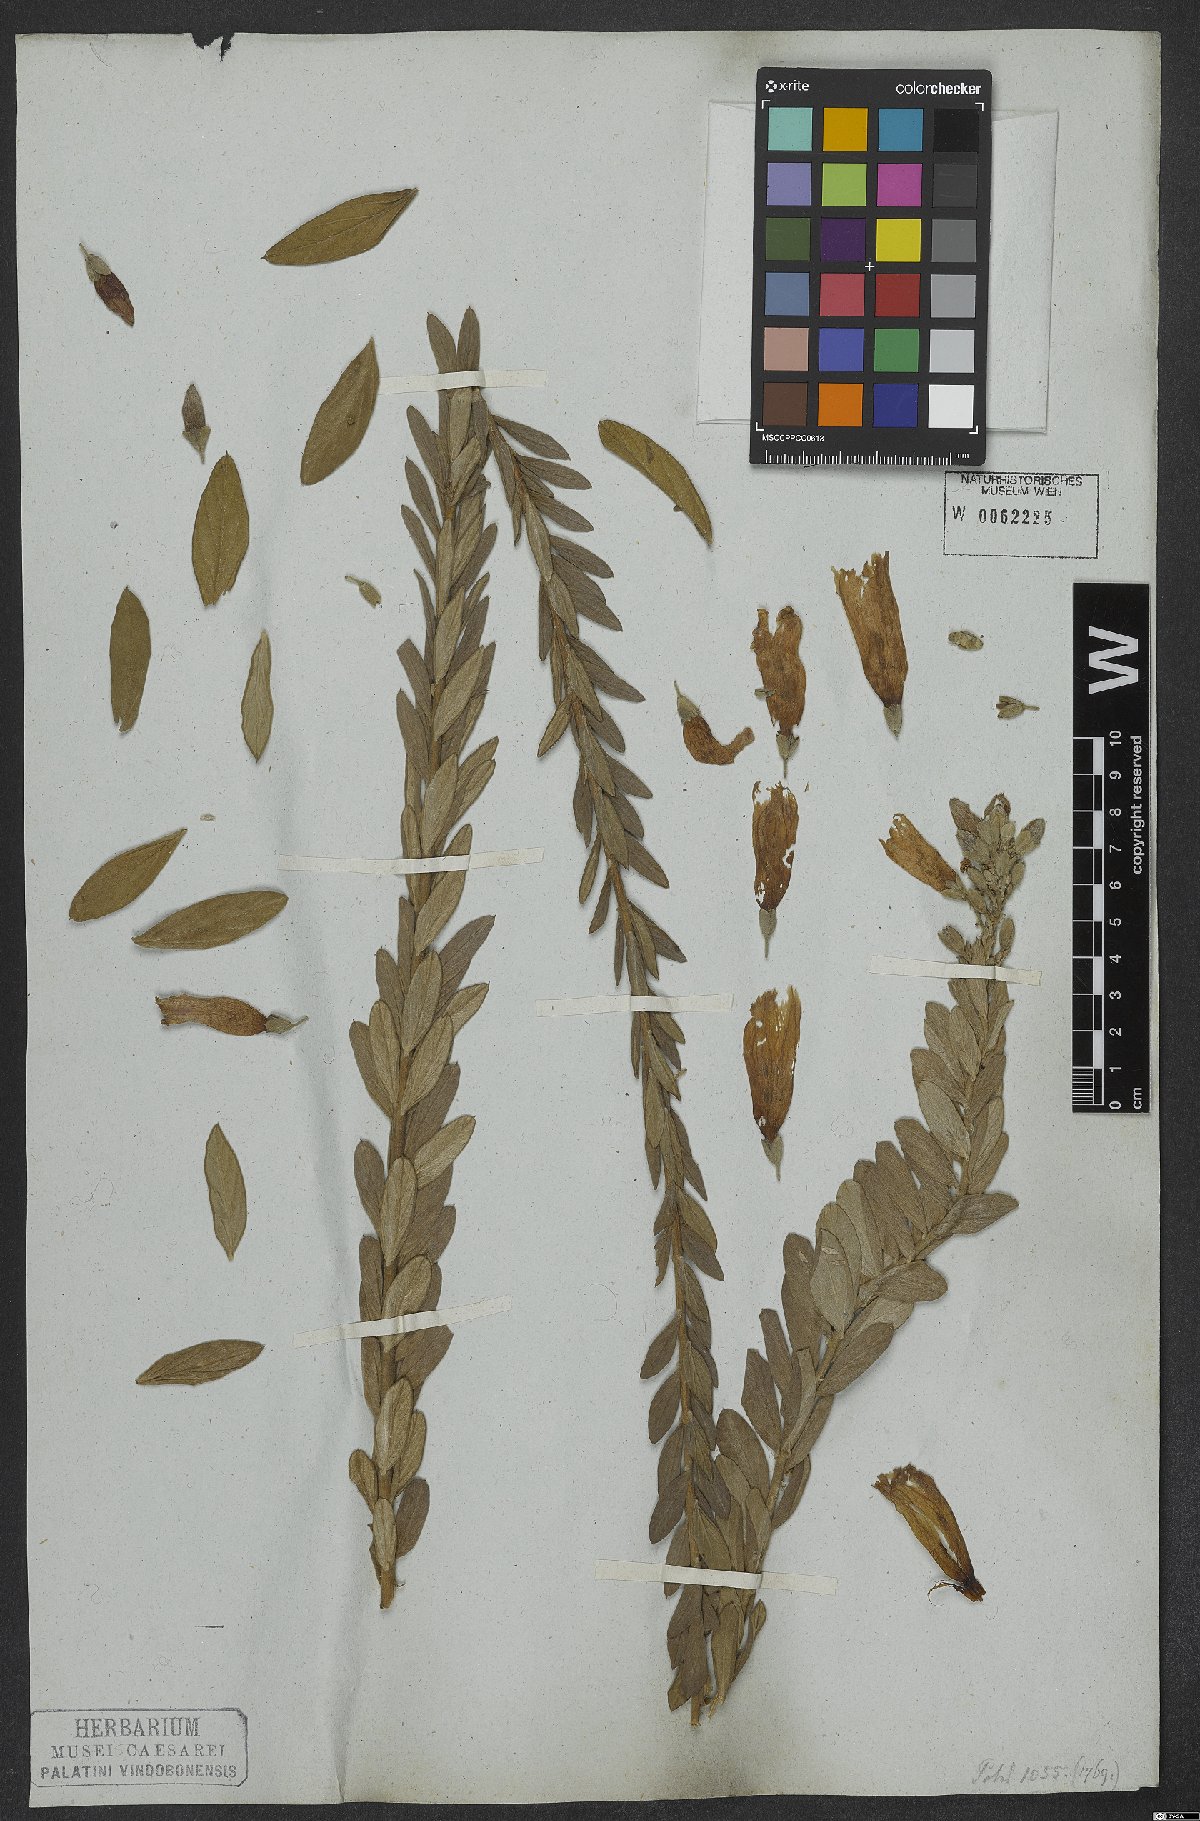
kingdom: Plantae
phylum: Tracheophyta
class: Magnoliopsida
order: Solanales
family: Convolvulaceae
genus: Ipomoea
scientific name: Ipomoea argyreia
